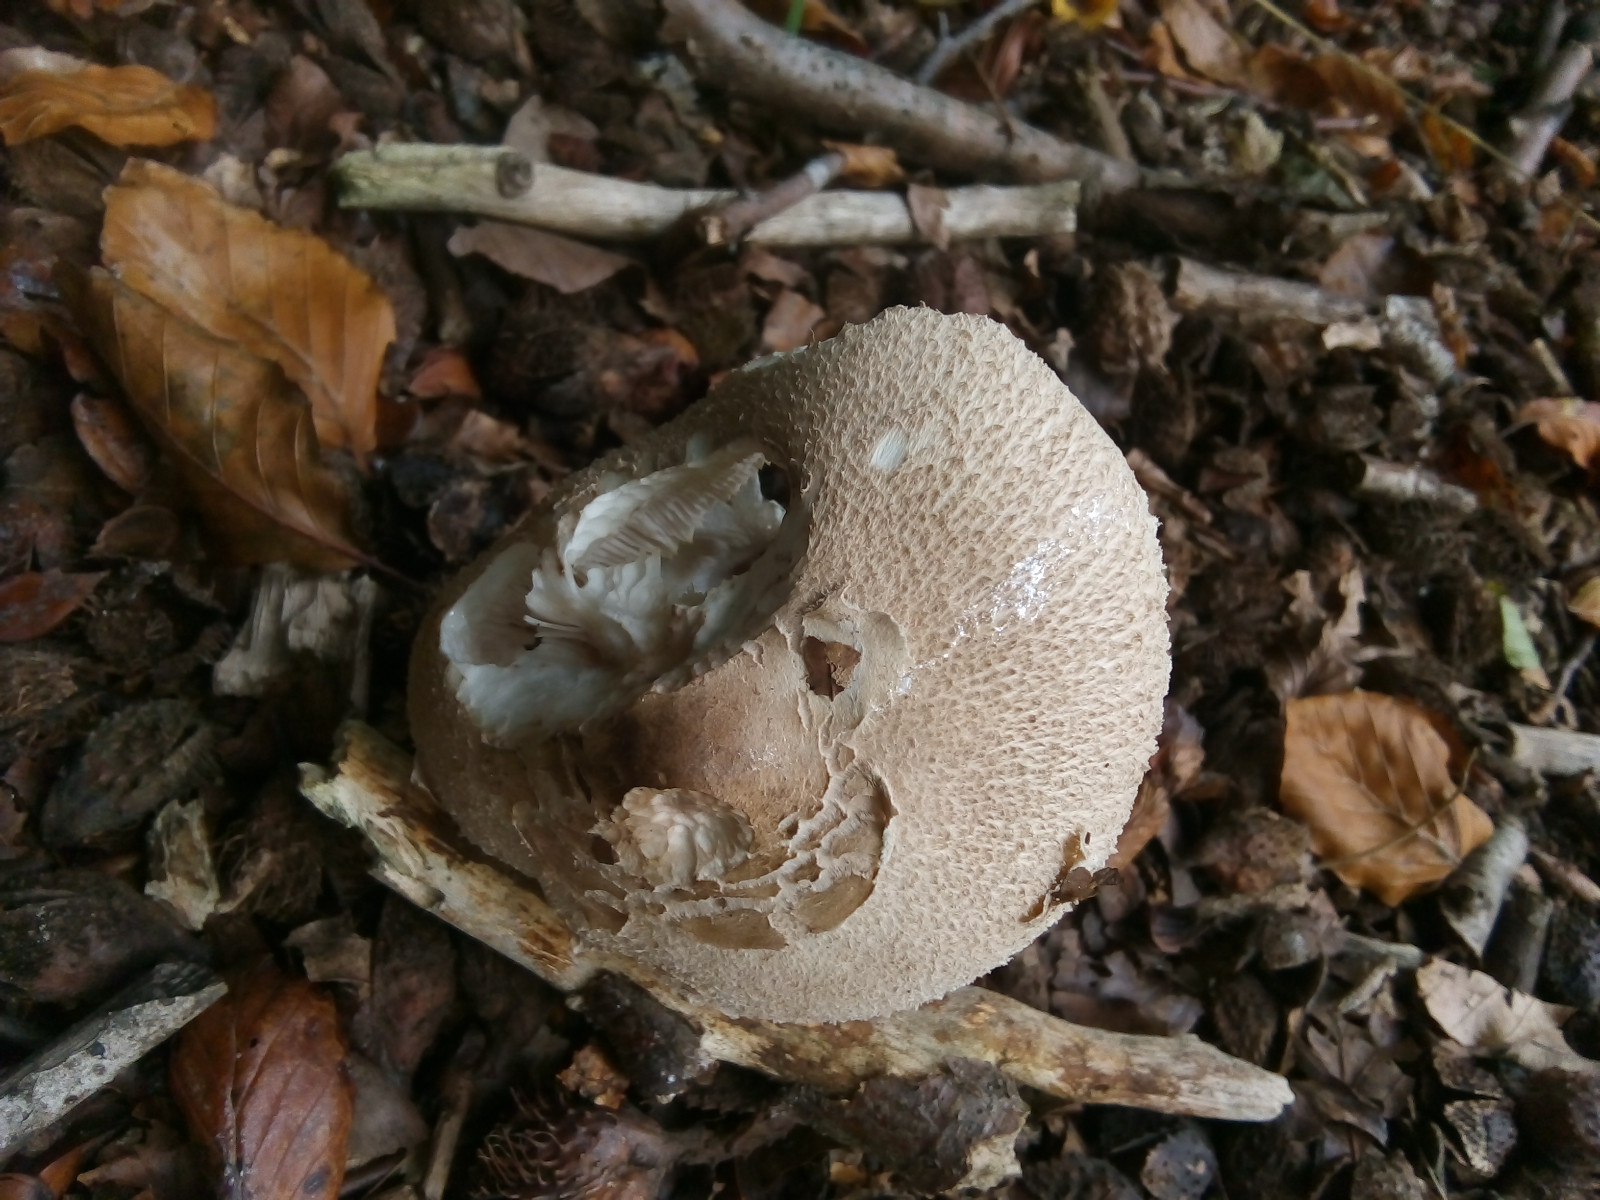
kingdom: Fungi
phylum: Basidiomycota
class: Agaricomycetes
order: Agaricales
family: Agaricaceae
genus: Macrolepiota
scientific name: Macrolepiota mastoidea
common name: puklet kæmpeparasolhat
